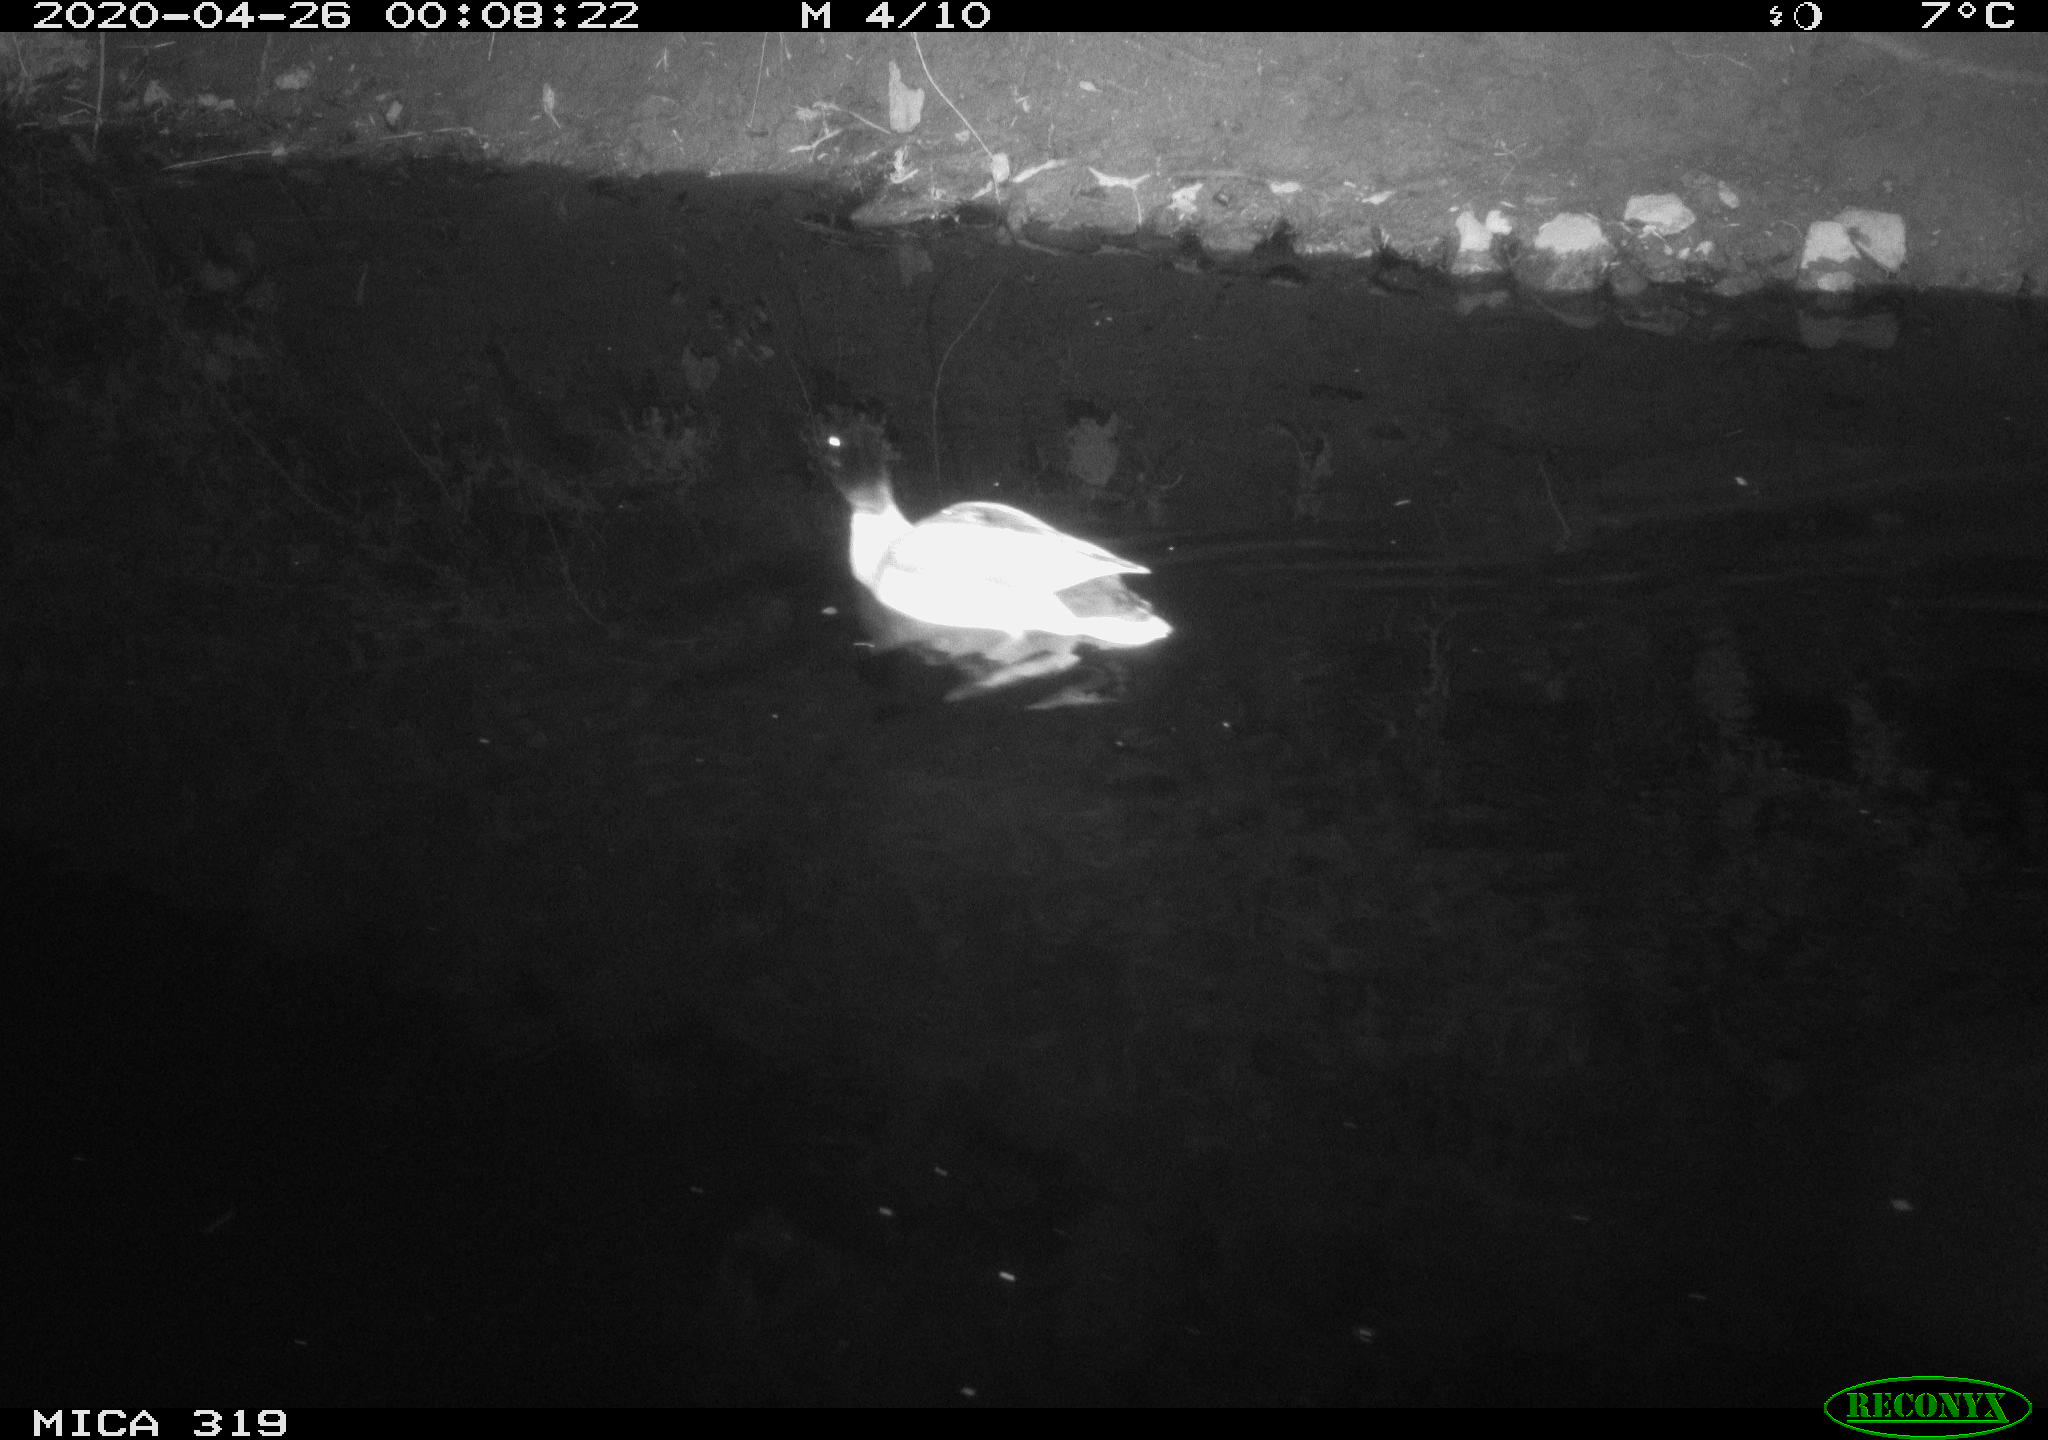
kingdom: Animalia
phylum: Chordata
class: Aves
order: Anseriformes
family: Anatidae
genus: Anas
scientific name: Anas platyrhynchos
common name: Mallard
